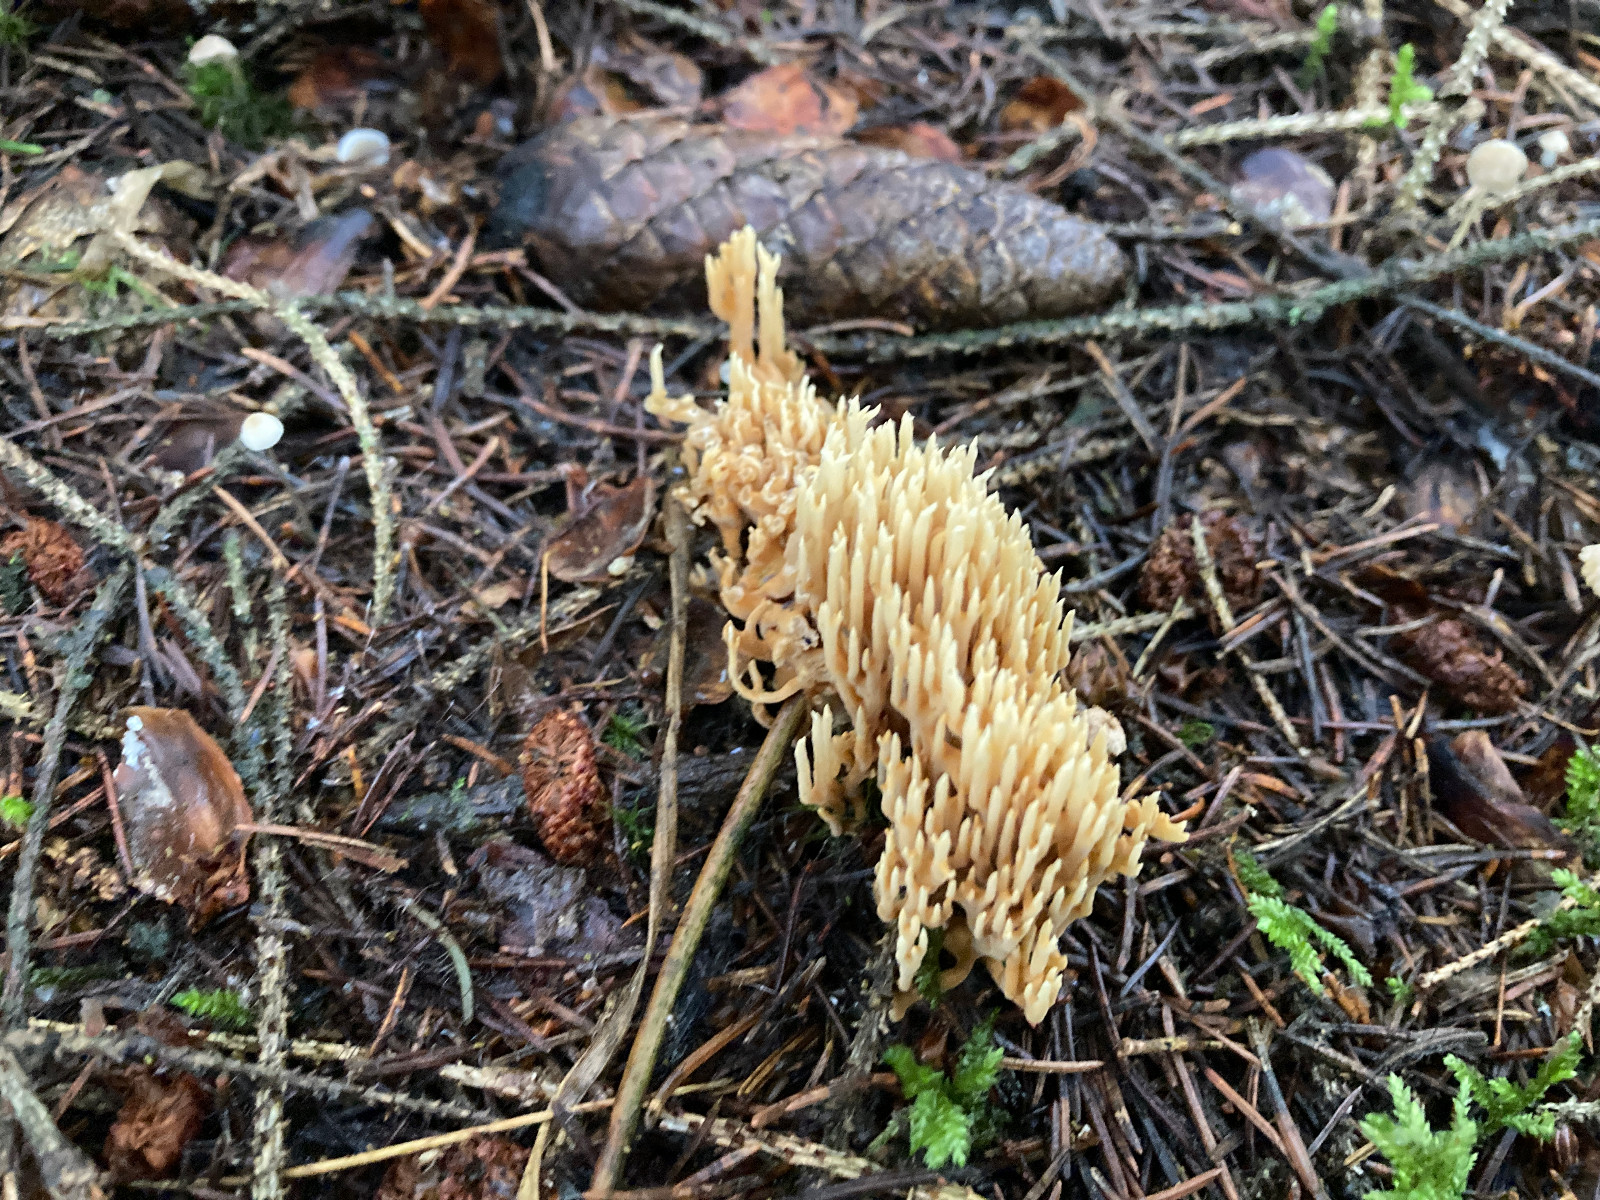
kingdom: Fungi
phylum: Basidiomycota
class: Agaricomycetes
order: Gomphales
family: Gomphaceae
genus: Phaeoclavulina
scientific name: Phaeoclavulina eumorpha
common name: gran-koralsvamp
